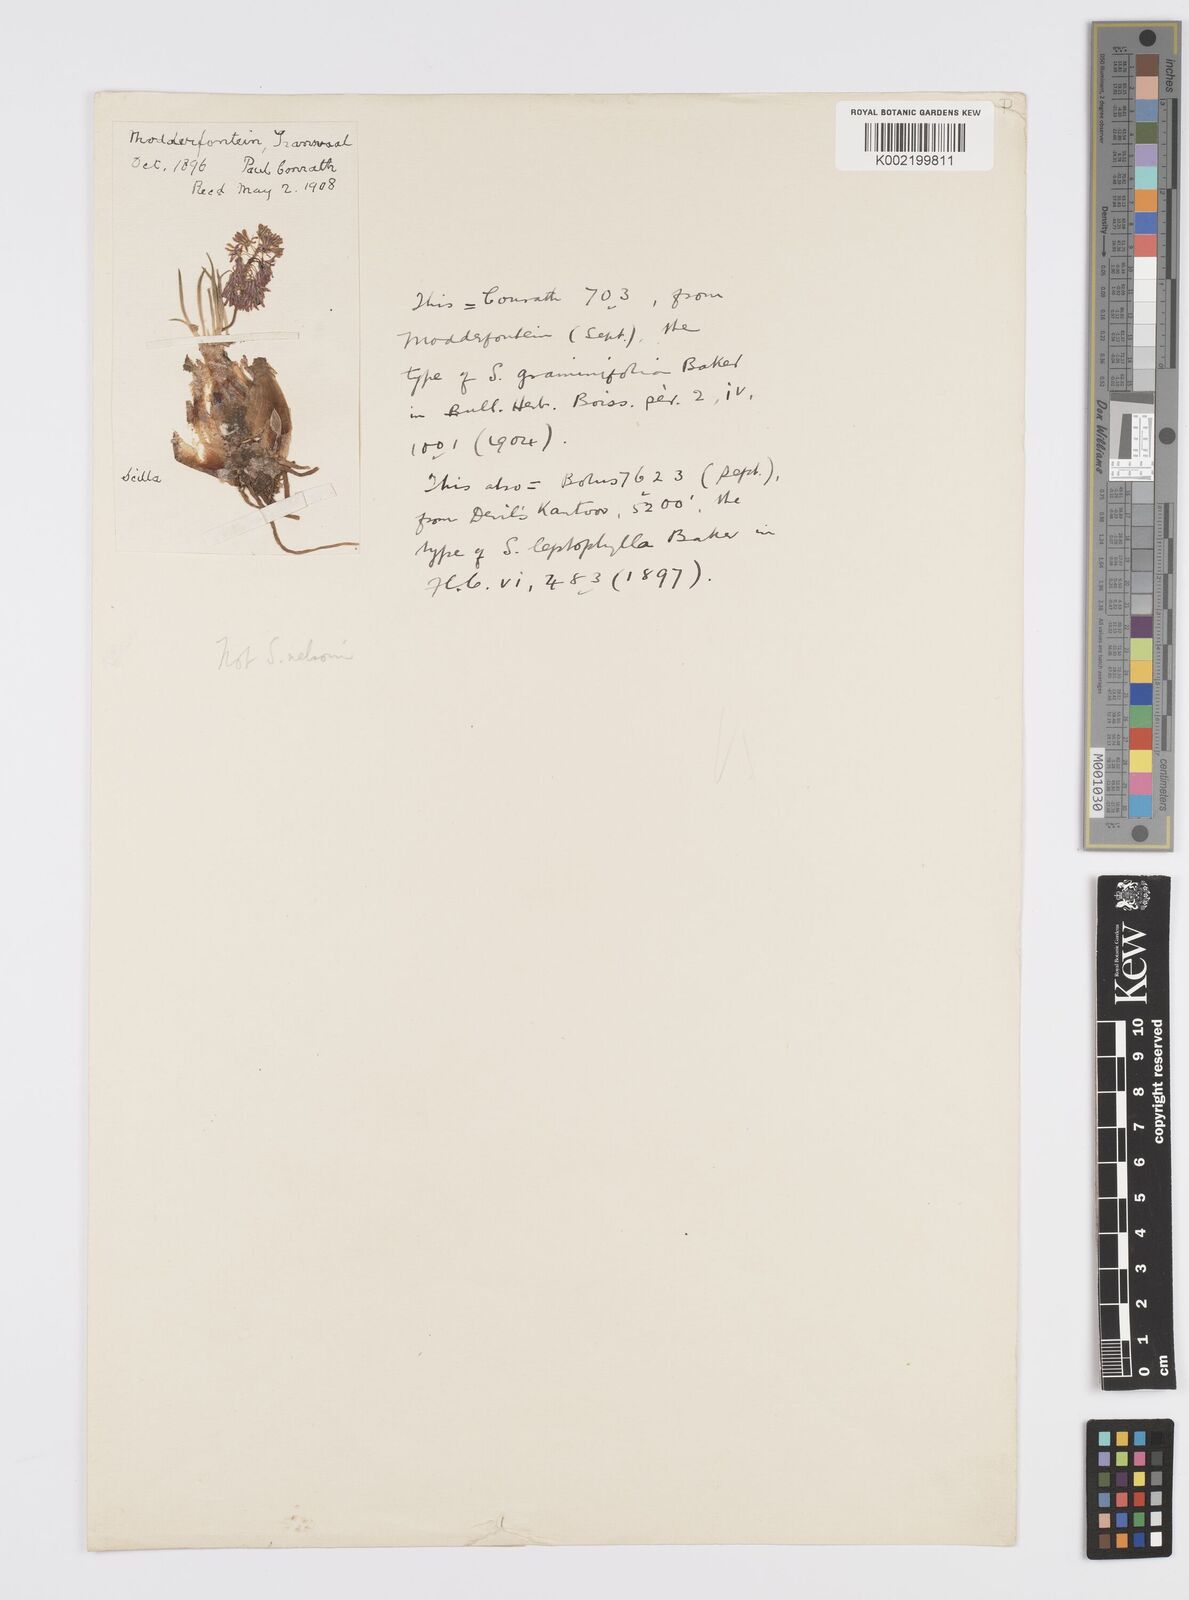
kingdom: Plantae
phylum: Tracheophyta
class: Liliopsida
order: Asparagales
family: Asparagaceae
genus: Ledebouria
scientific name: Ledebouria cooperi
